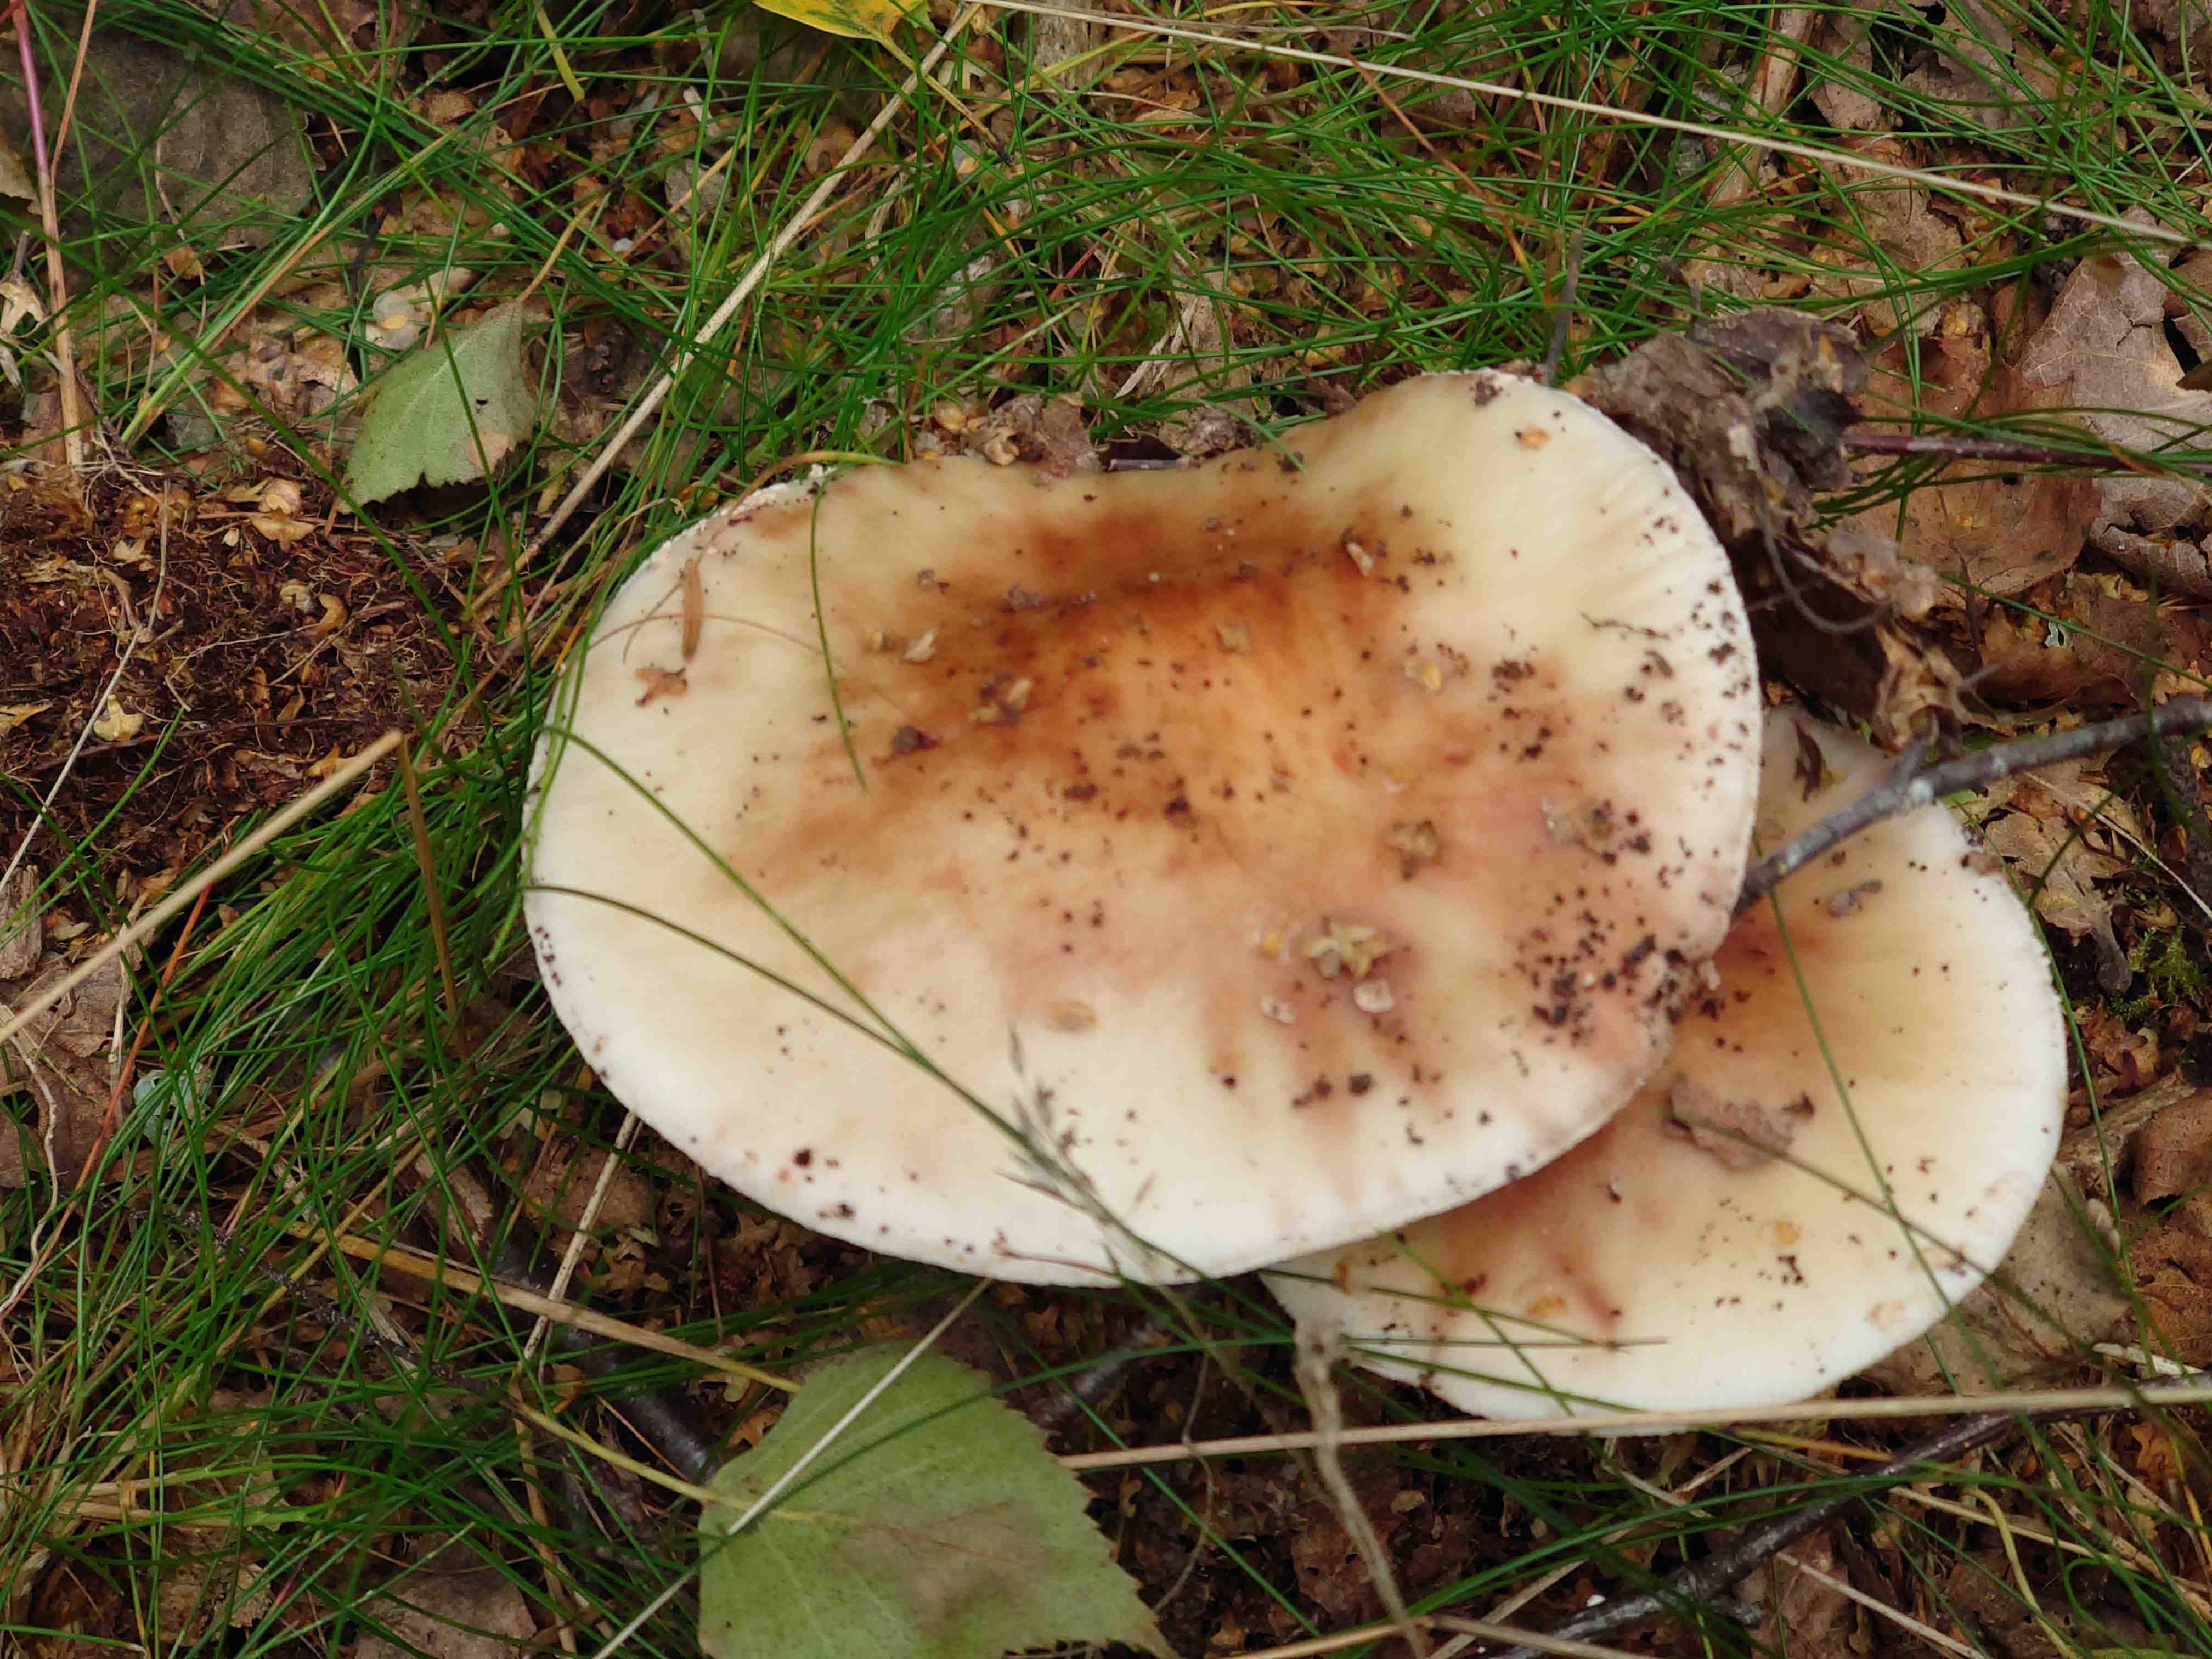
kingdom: Fungi
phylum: Basidiomycota
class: Agaricomycetes
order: Agaricales
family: Amanitaceae
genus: Amanita
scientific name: Amanita rubescens
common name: rødmende fluesvamp
